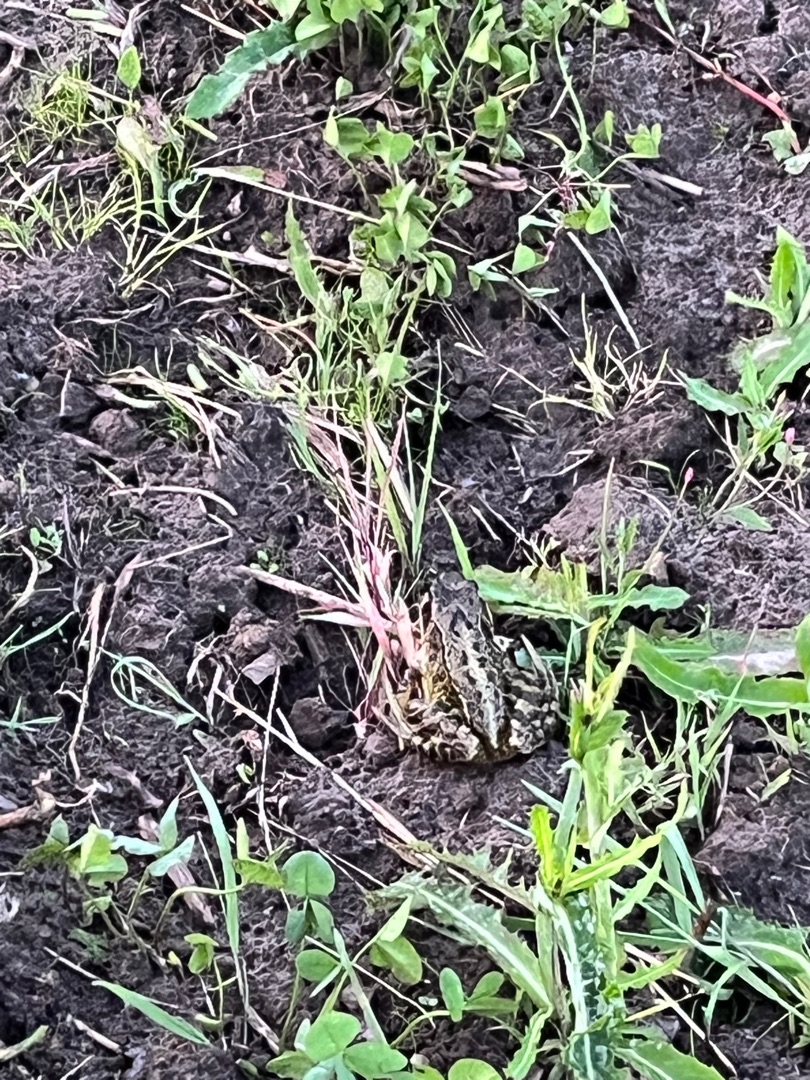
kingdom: Animalia
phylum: Chordata
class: Amphibia
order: Anura
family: Ranidae
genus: Rana
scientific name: Rana temporaria
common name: Butsnudet frø
